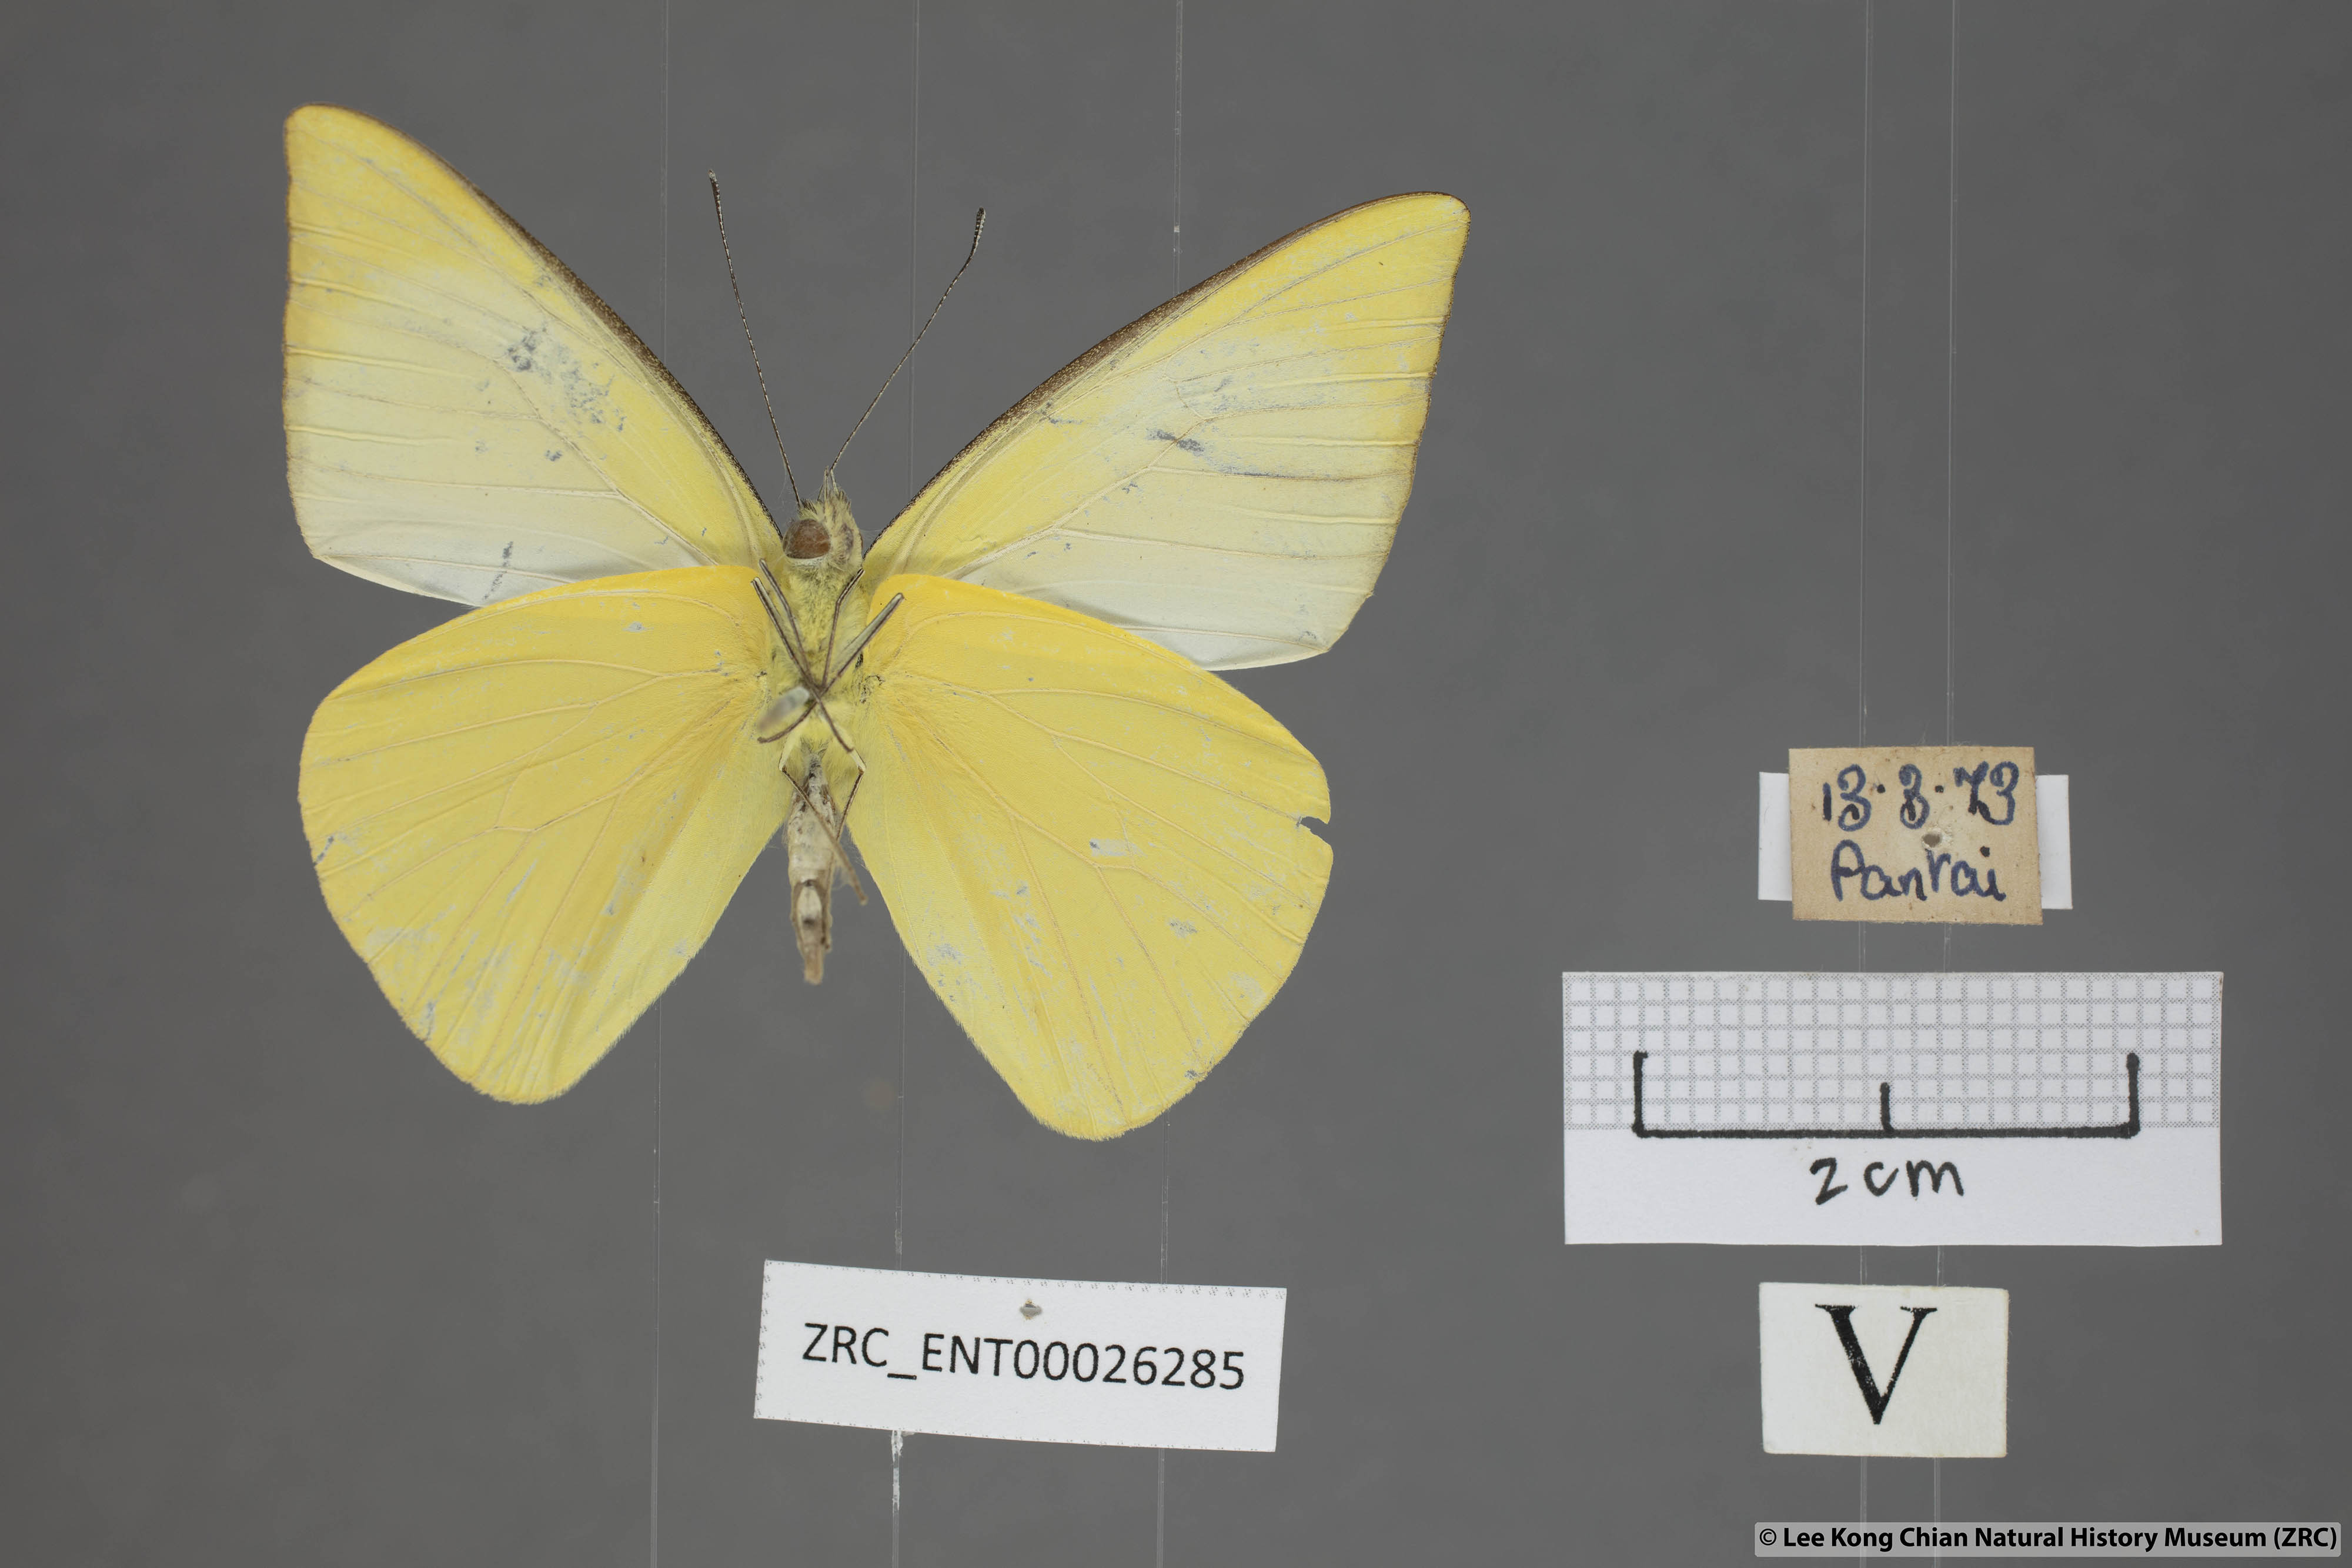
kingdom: Animalia
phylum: Arthropoda
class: Insecta
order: Lepidoptera
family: Pieridae
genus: Saletara
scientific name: Saletara liberia
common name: Pointed albatross
